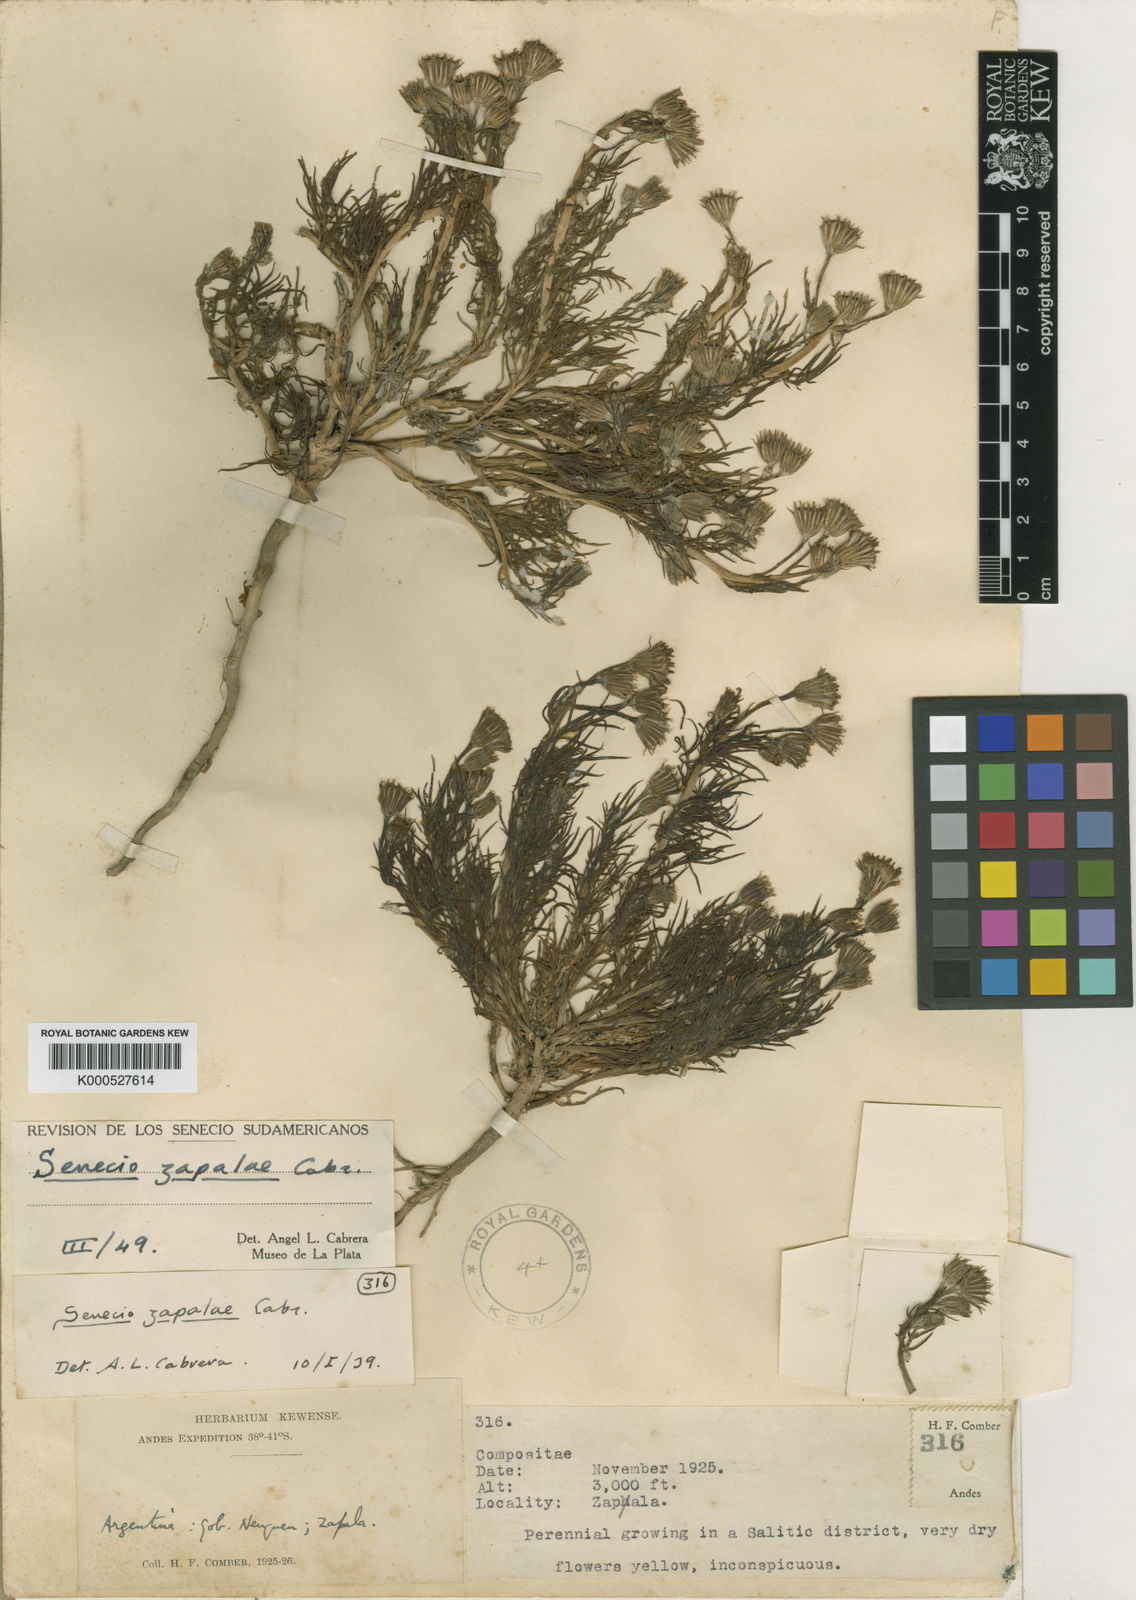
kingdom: Plantae
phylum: Tracheophyta
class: Magnoliopsida
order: Asterales
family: Asteraceae
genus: Senecio
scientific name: Senecio zapalae
